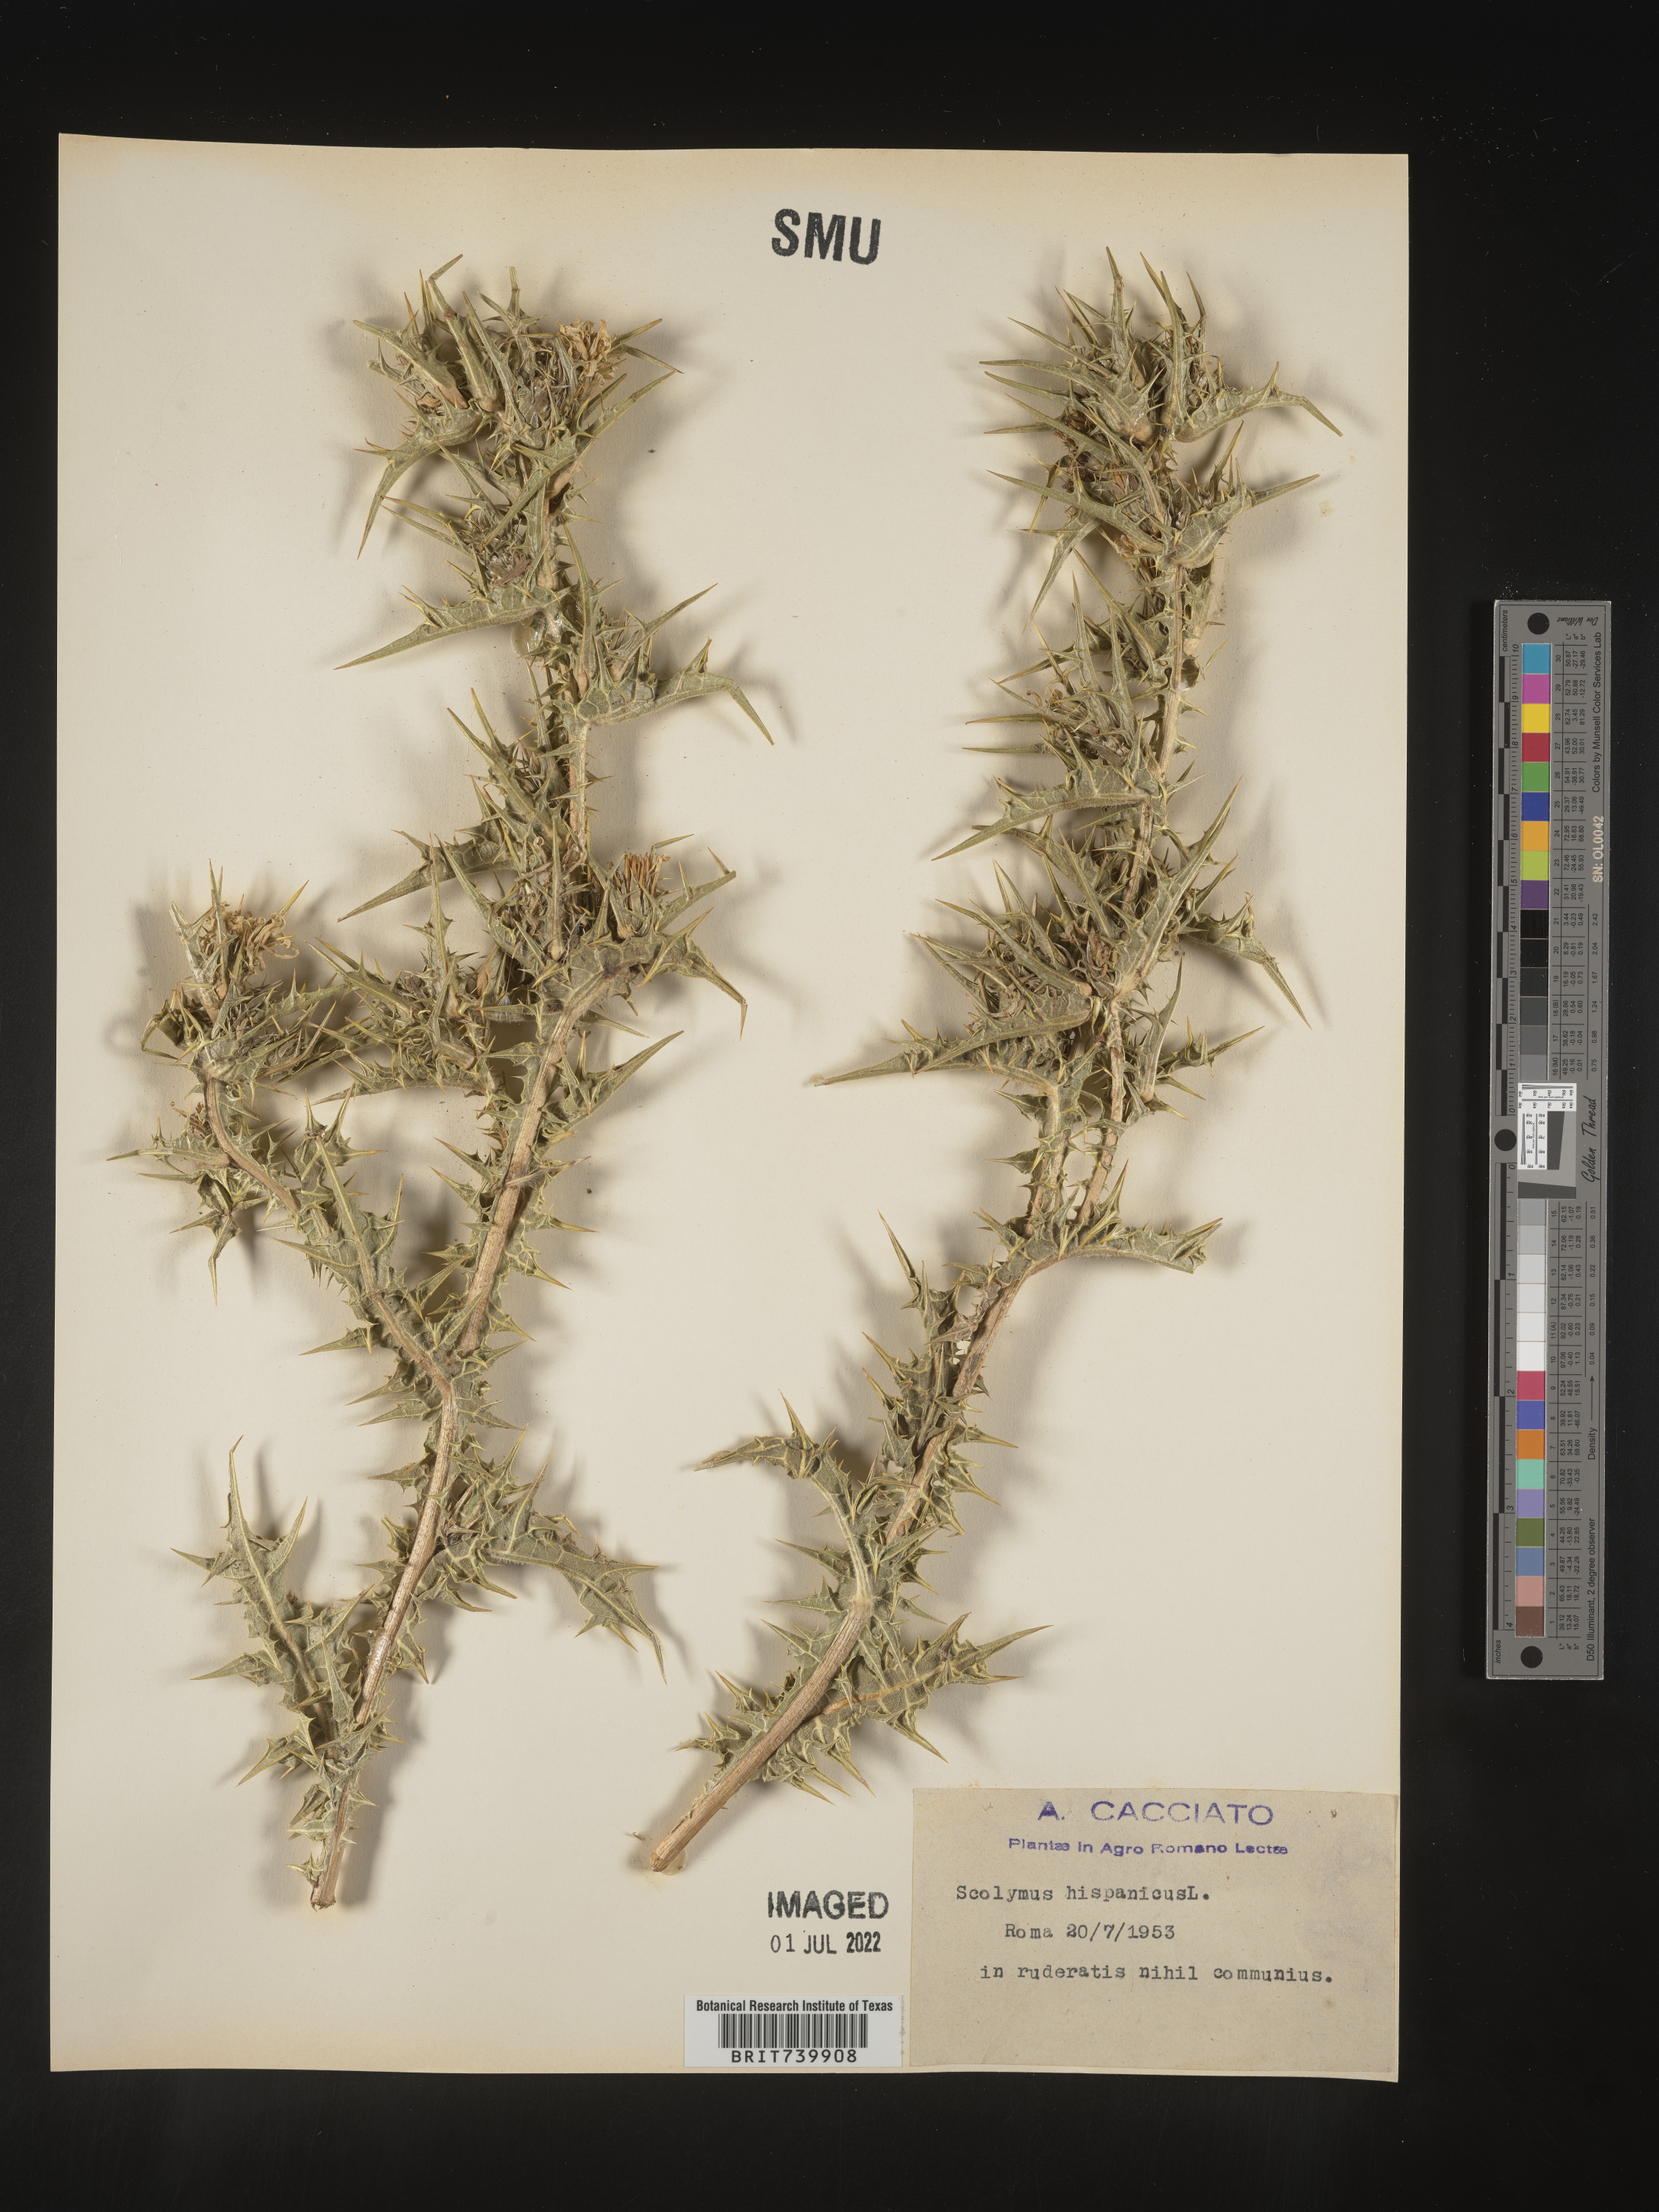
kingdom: Plantae
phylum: Tracheophyta
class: Magnoliopsida
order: Asterales
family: Asteraceae
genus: Scolymus
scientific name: Scolymus
